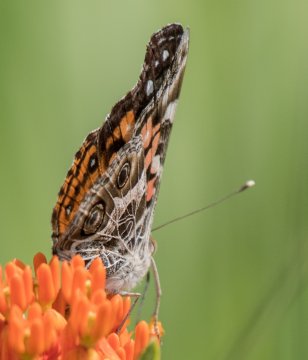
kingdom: Animalia
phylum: Arthropoda
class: Insecta
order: Lepidoptera
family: Nymphalidae
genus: Vanessa
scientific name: Vanessa virginiensis
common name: American Lady
